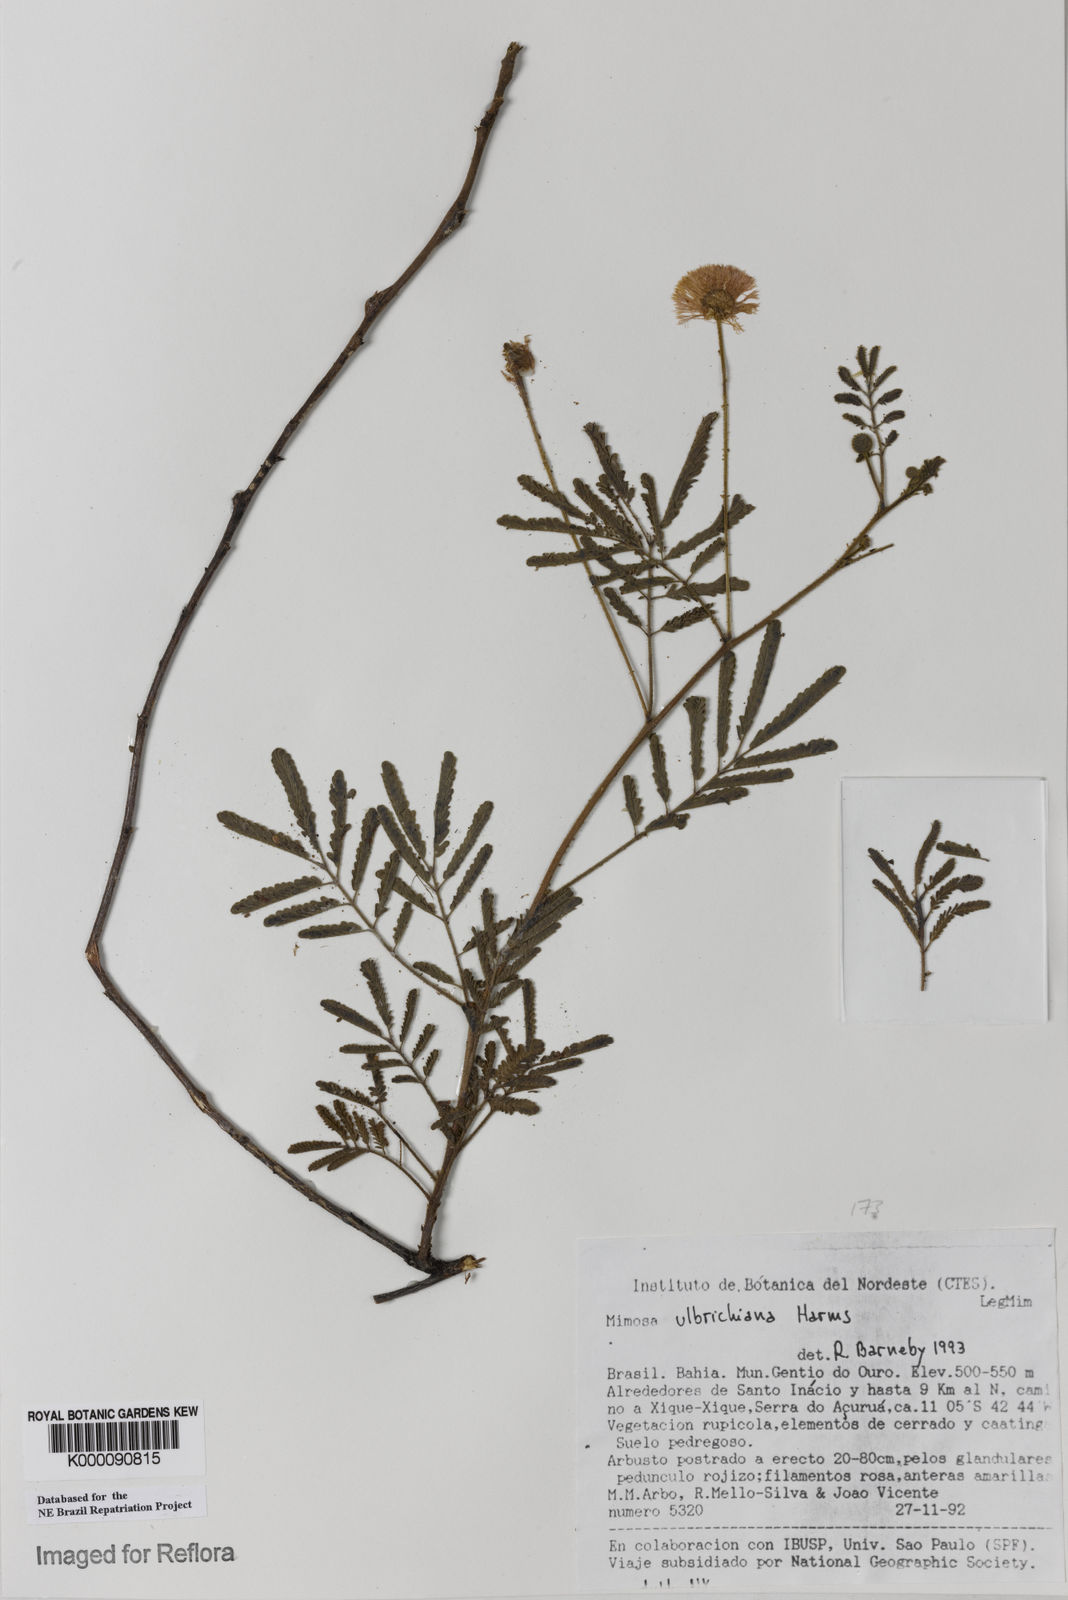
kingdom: Plantae
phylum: Tracheophyta
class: Magnoliopsida
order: Fabales
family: Fabaceae
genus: Mimosa
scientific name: Mimosa ulbrichiana
